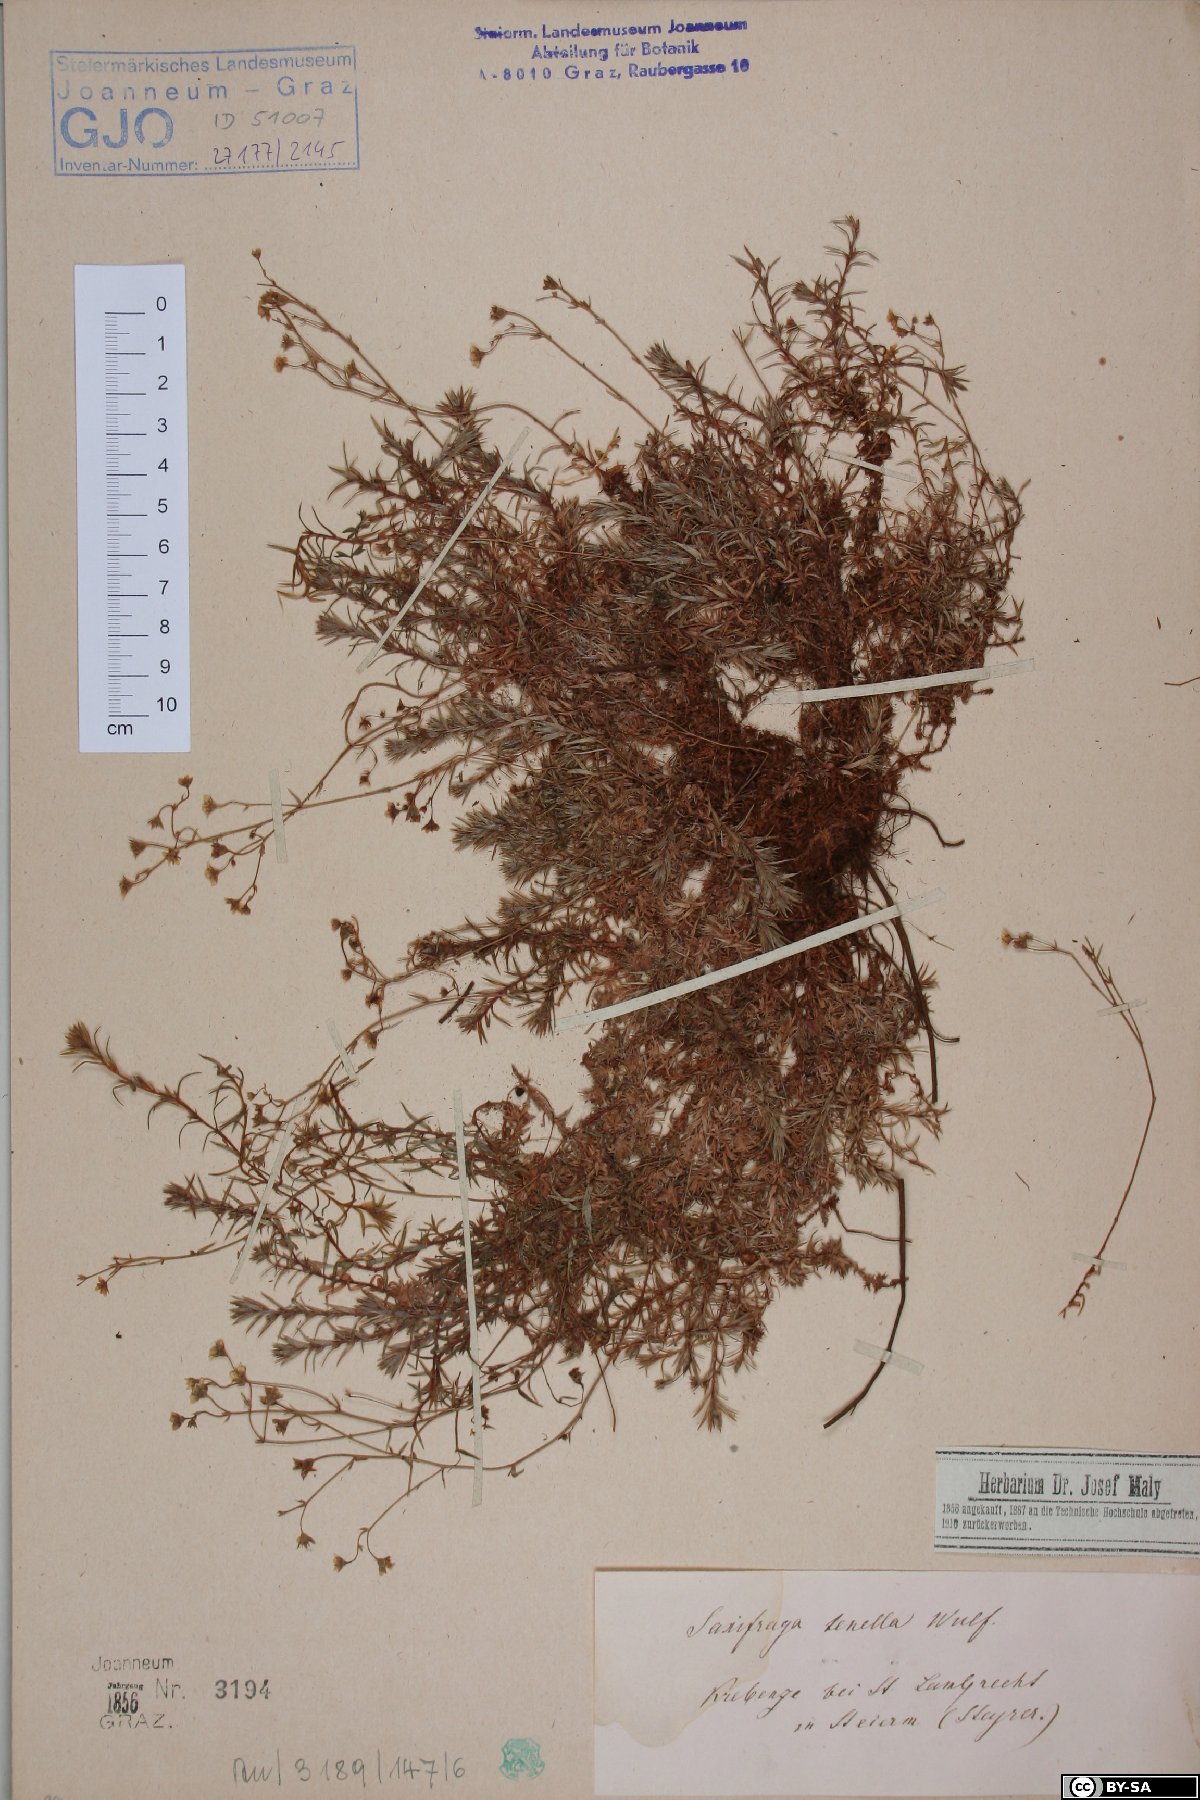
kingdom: Plantae
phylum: Tracheophyta
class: Magnoliopsida
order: Saxifragales
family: Saxifragaceae
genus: Saxifraga
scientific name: Saxifraga tenella
